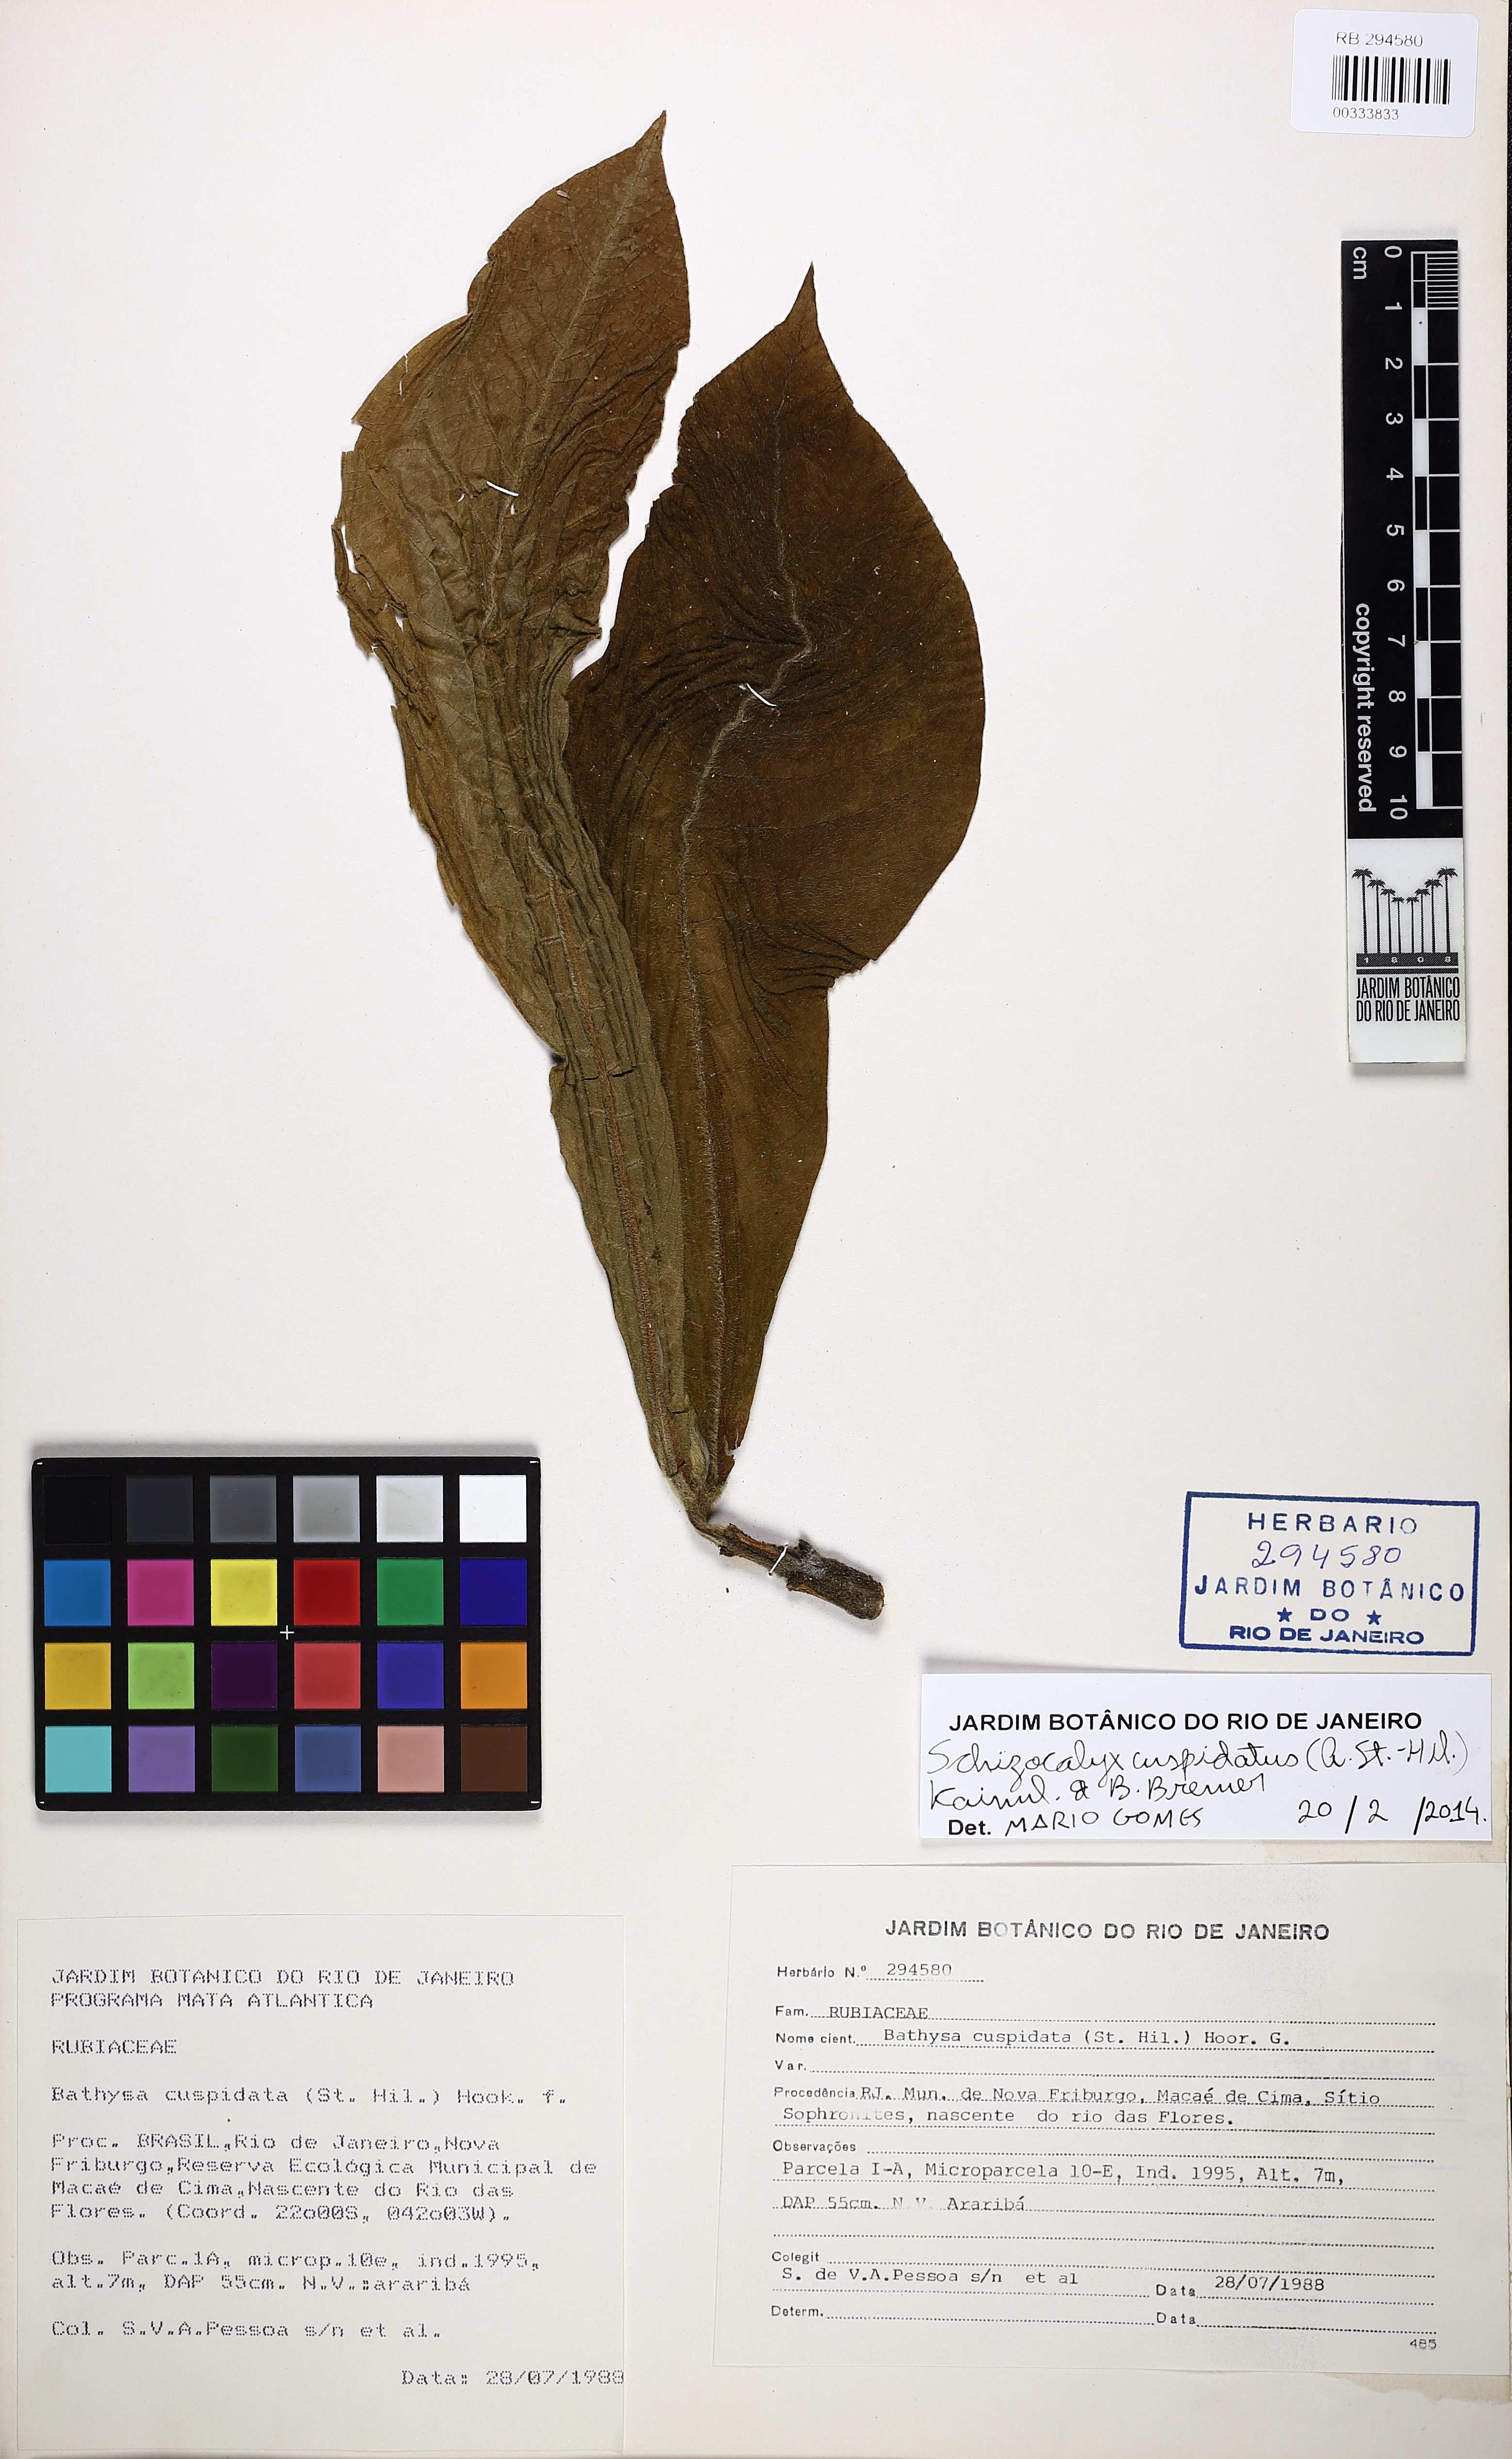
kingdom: Plantae
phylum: Tracheophyta
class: Magnoliopsida
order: Gentianales
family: Rubiaceae
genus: Schizocalyx
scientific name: Schizocalyx cuspidatus
